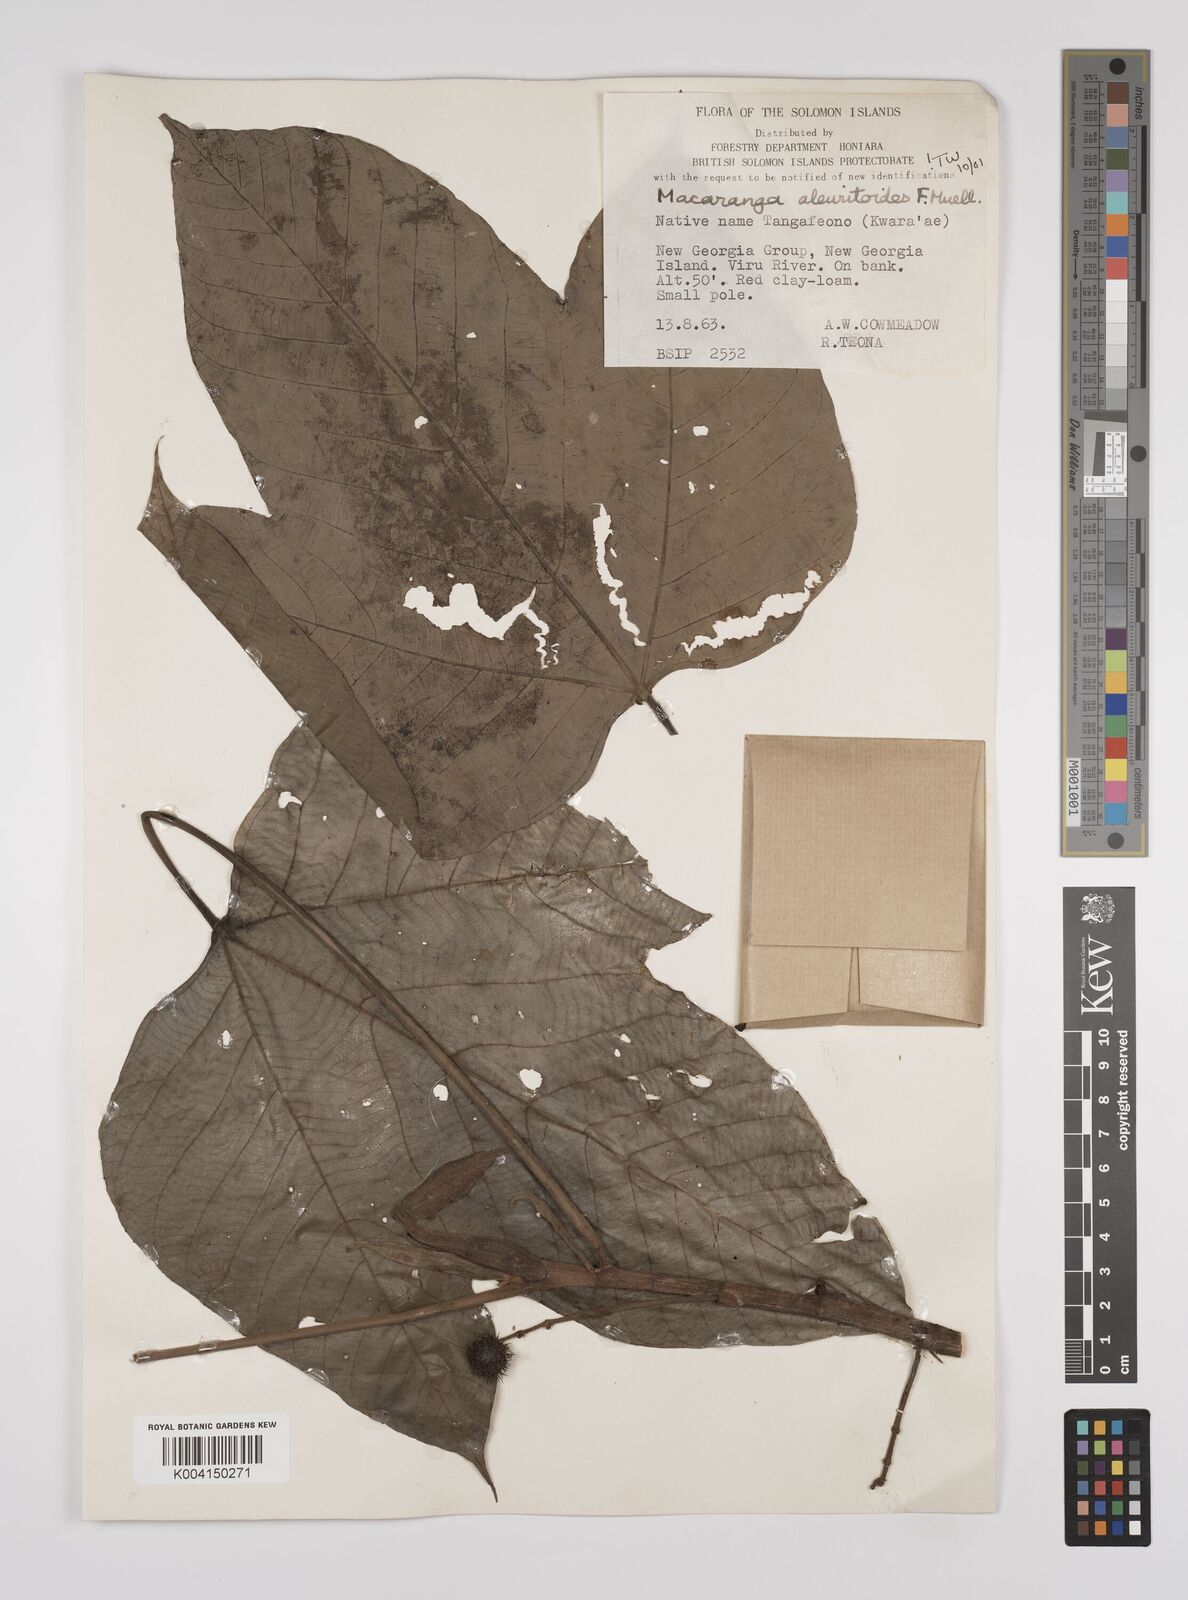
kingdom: Plantae
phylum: Tracheophyta
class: Magnoliopsida
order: Malpighiales
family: Euphorbiaceae
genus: Macaranga
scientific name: Macaranga aleuritoides
